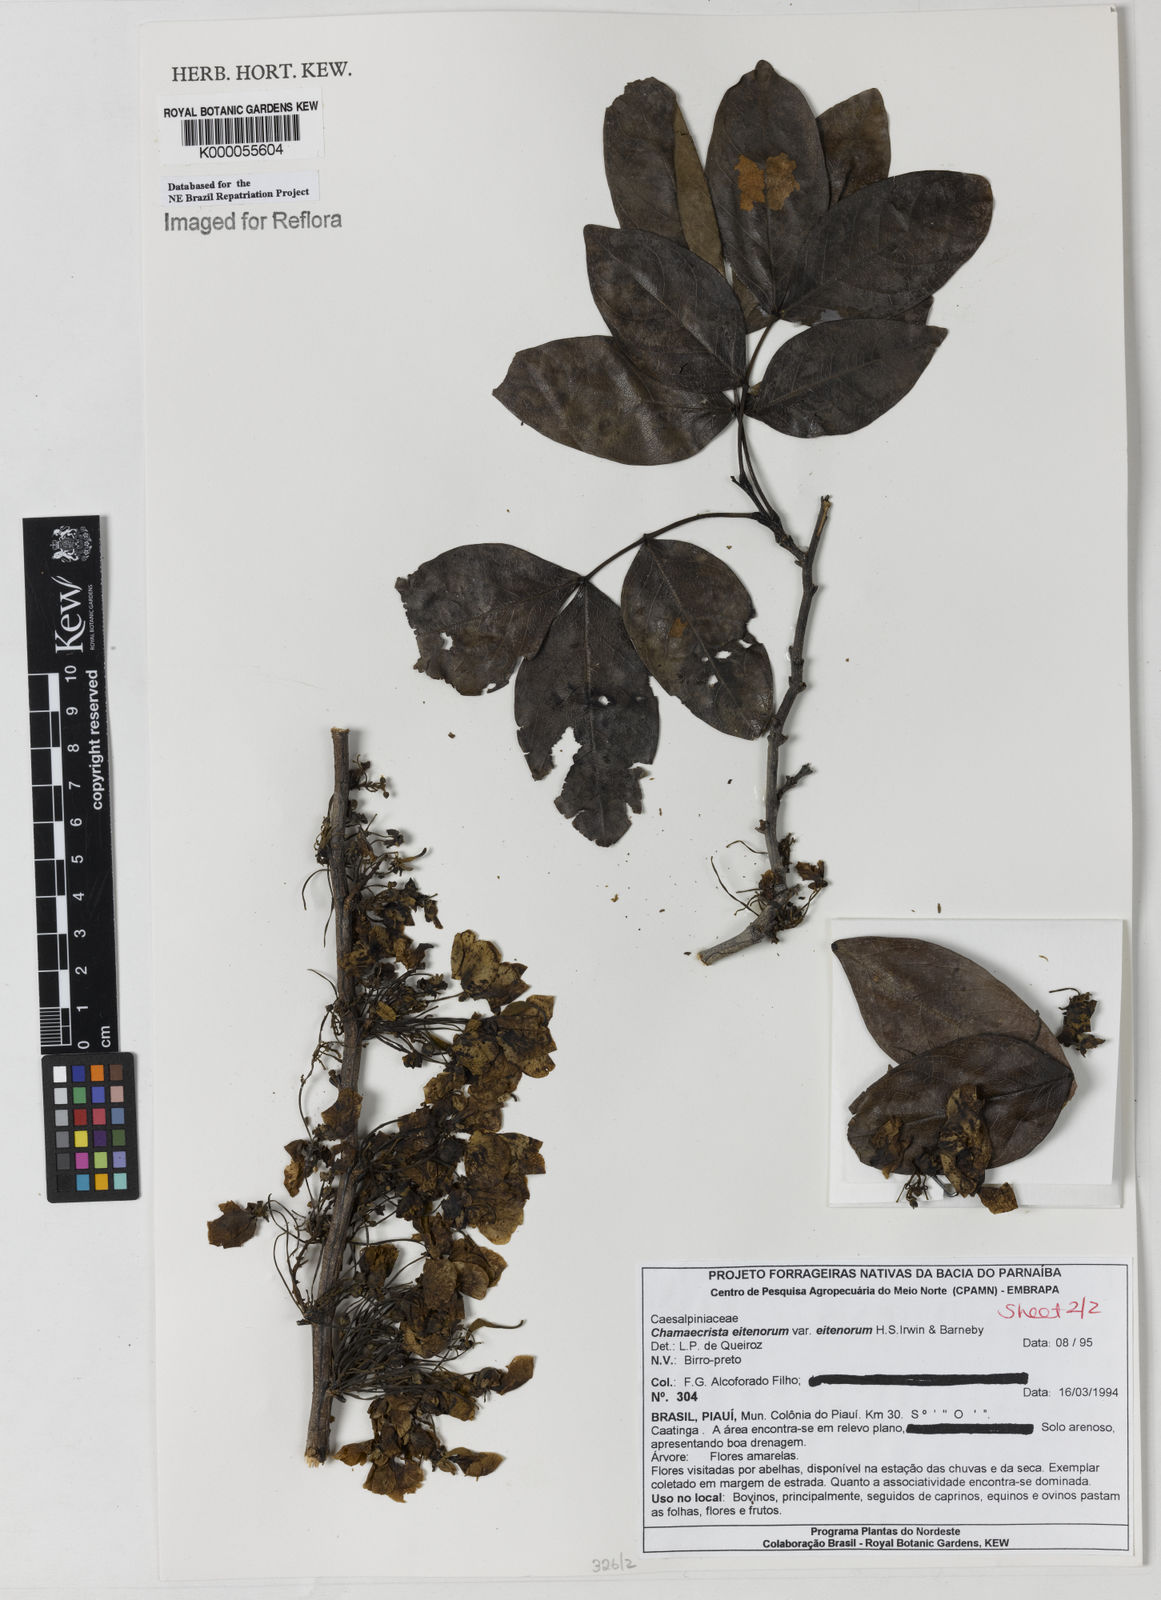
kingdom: Plantae
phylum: Tracheophyta
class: Magnoliopsida
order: Fabales
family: Fabaceae
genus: Chamaecrista
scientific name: Chamaecrista eitenorum
